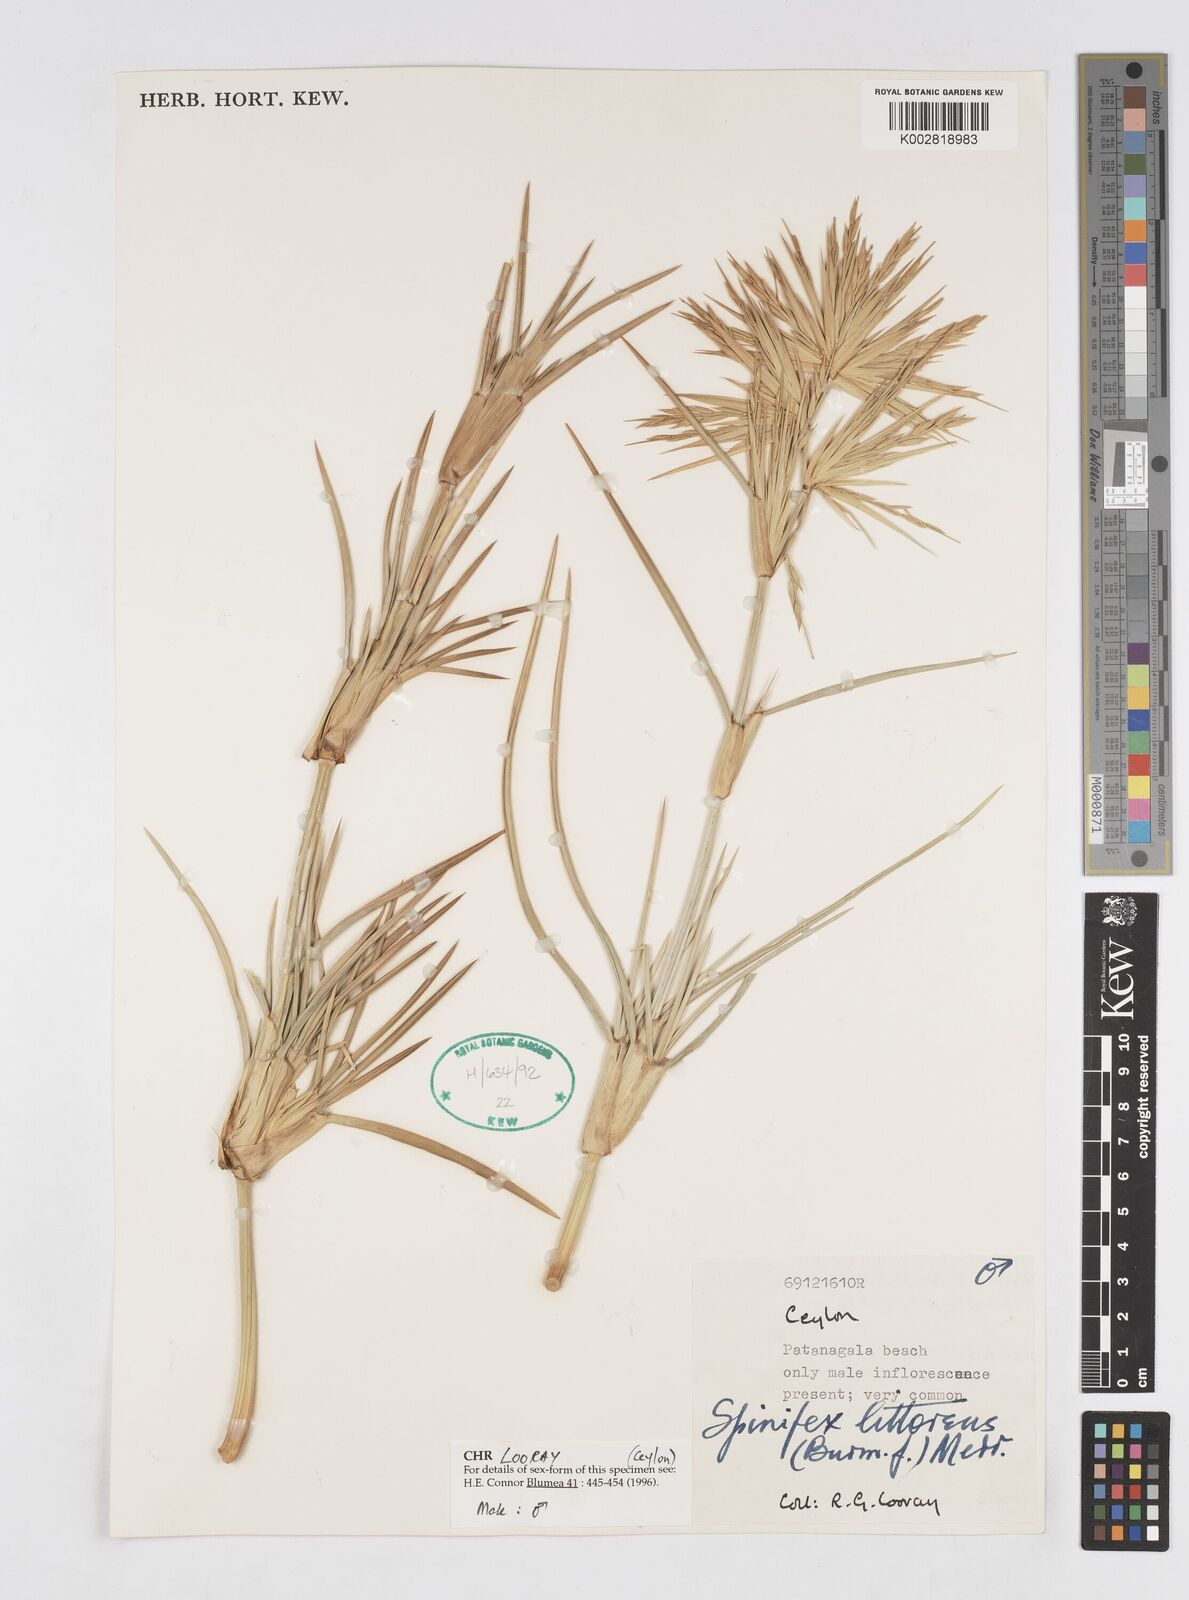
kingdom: Plantae
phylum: Tracheophyta
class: Liliopsida
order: Poales
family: Poaceae
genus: Spinifex
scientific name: Spinifex littoreus
